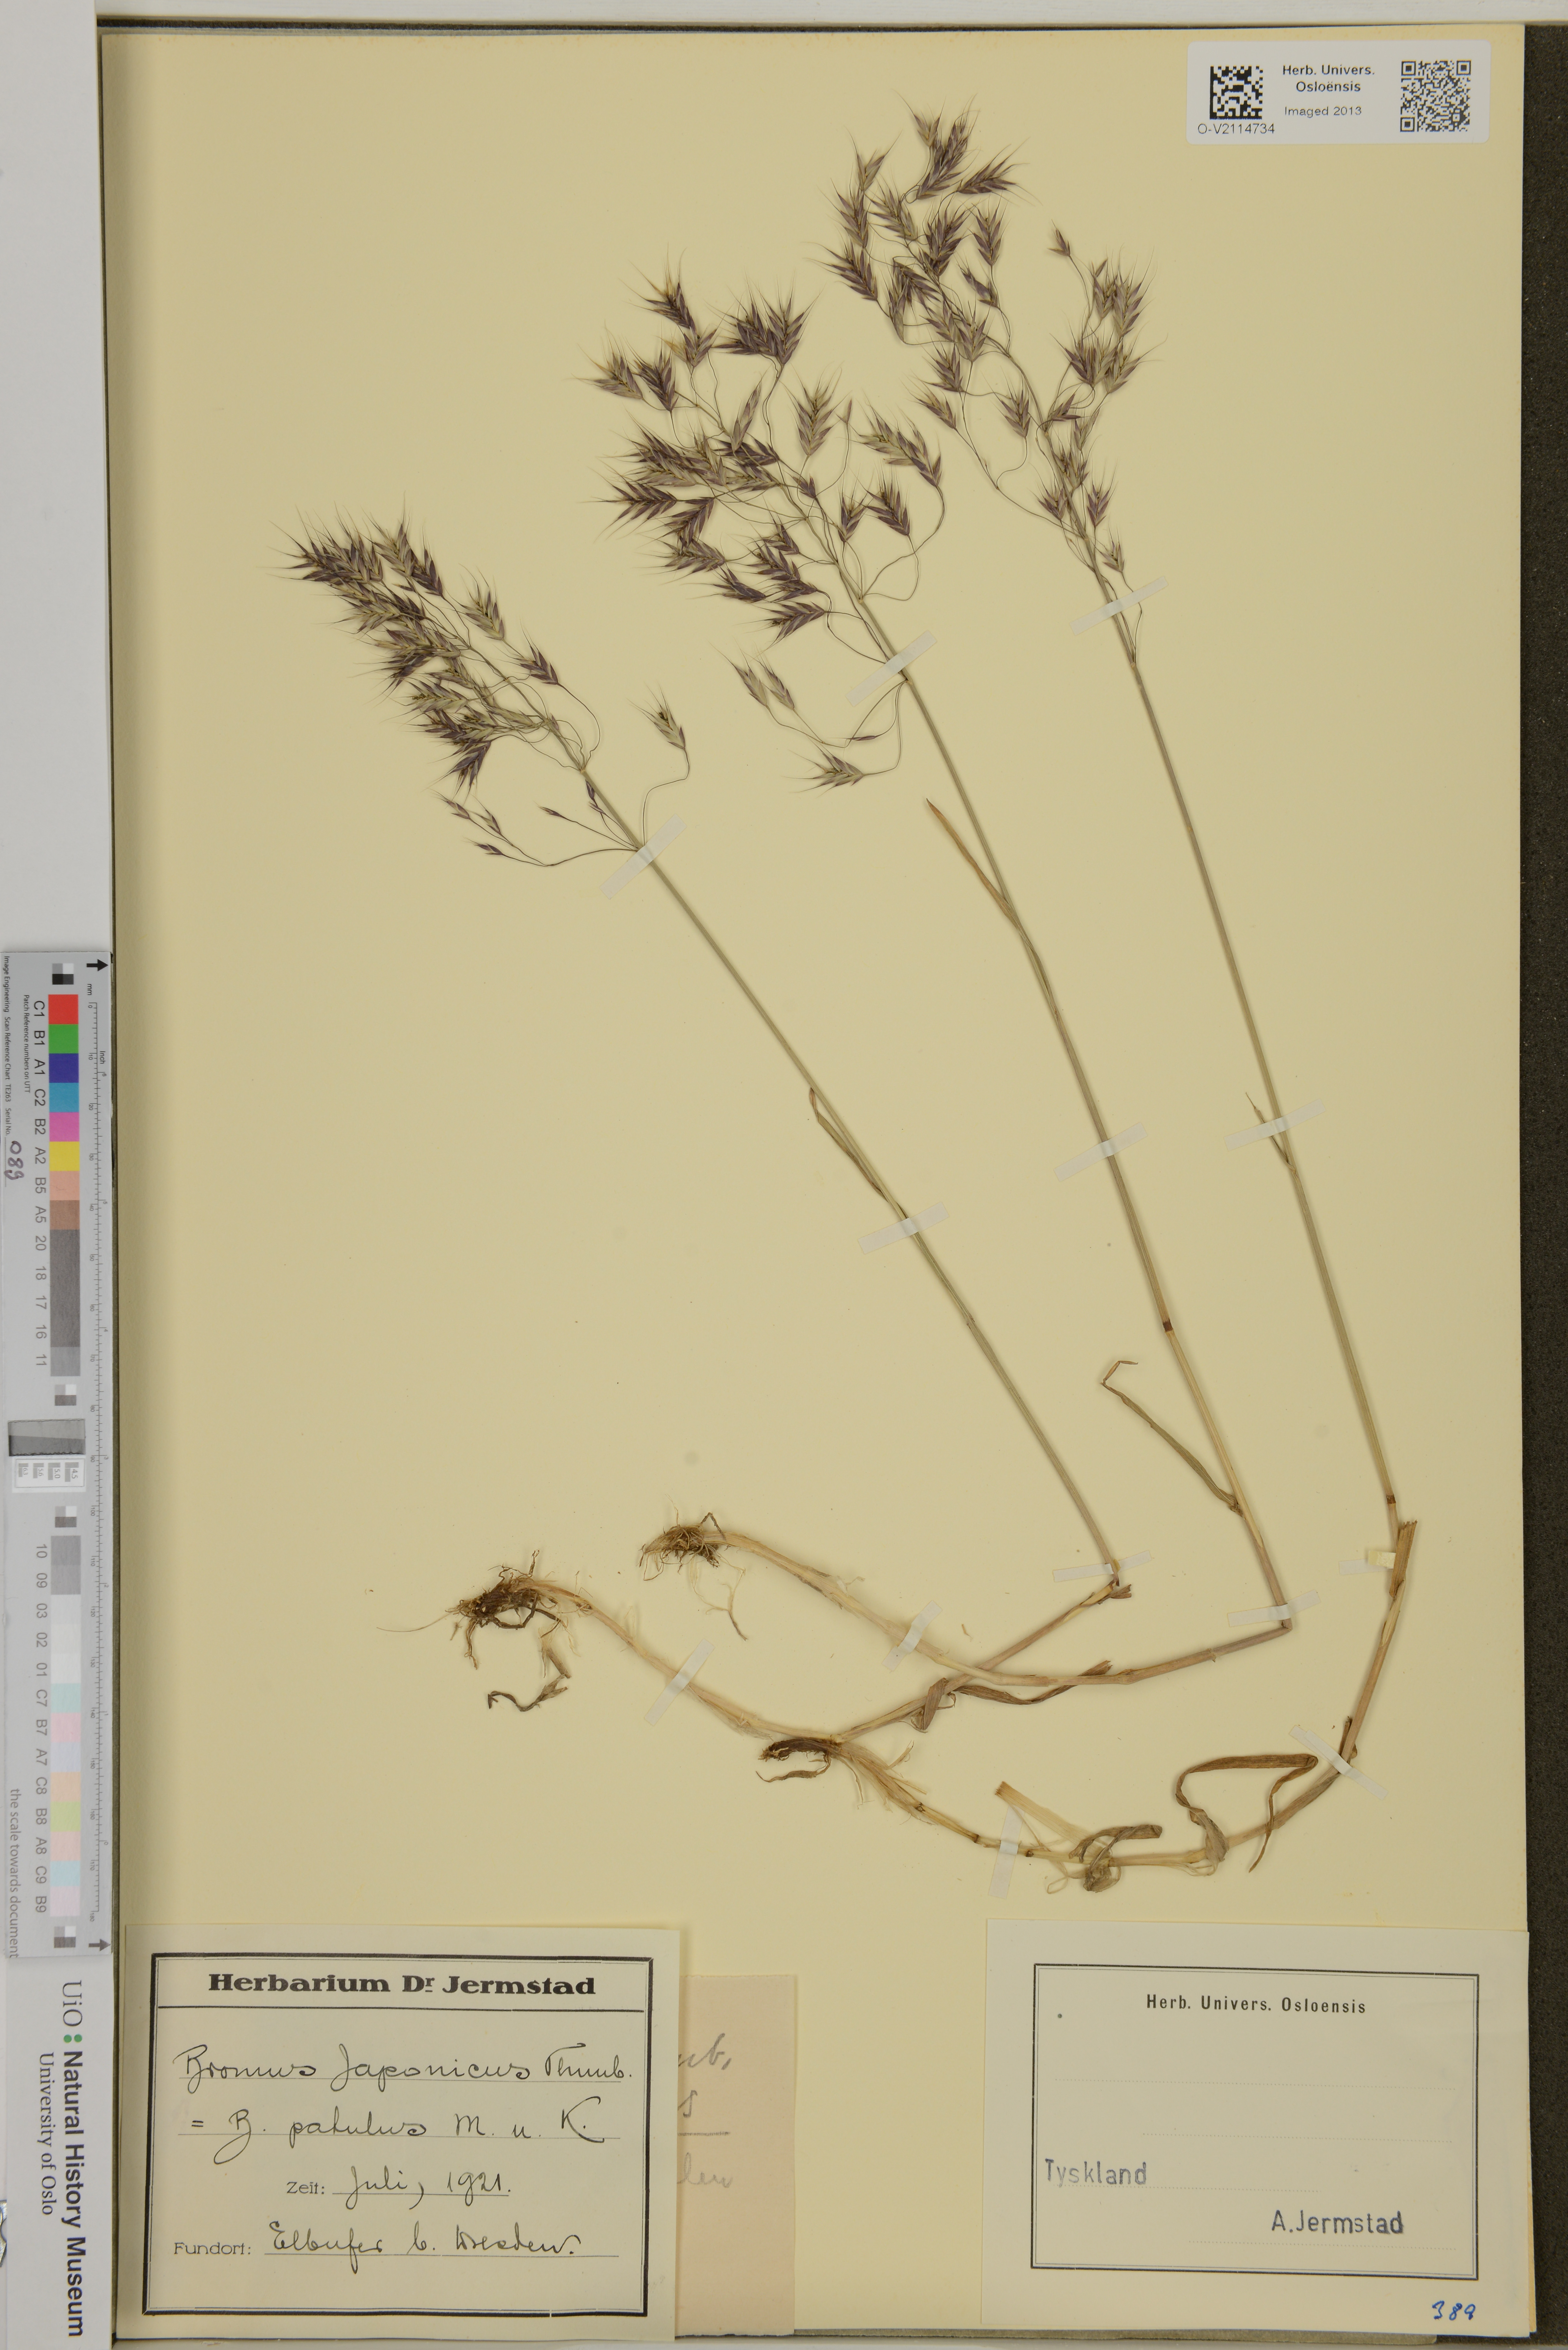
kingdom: Plantae
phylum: Tracheophyta
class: Liliopsida
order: Poales
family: Poaceae
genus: Bromus
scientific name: Bromus japonicus
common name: Japanese brome
